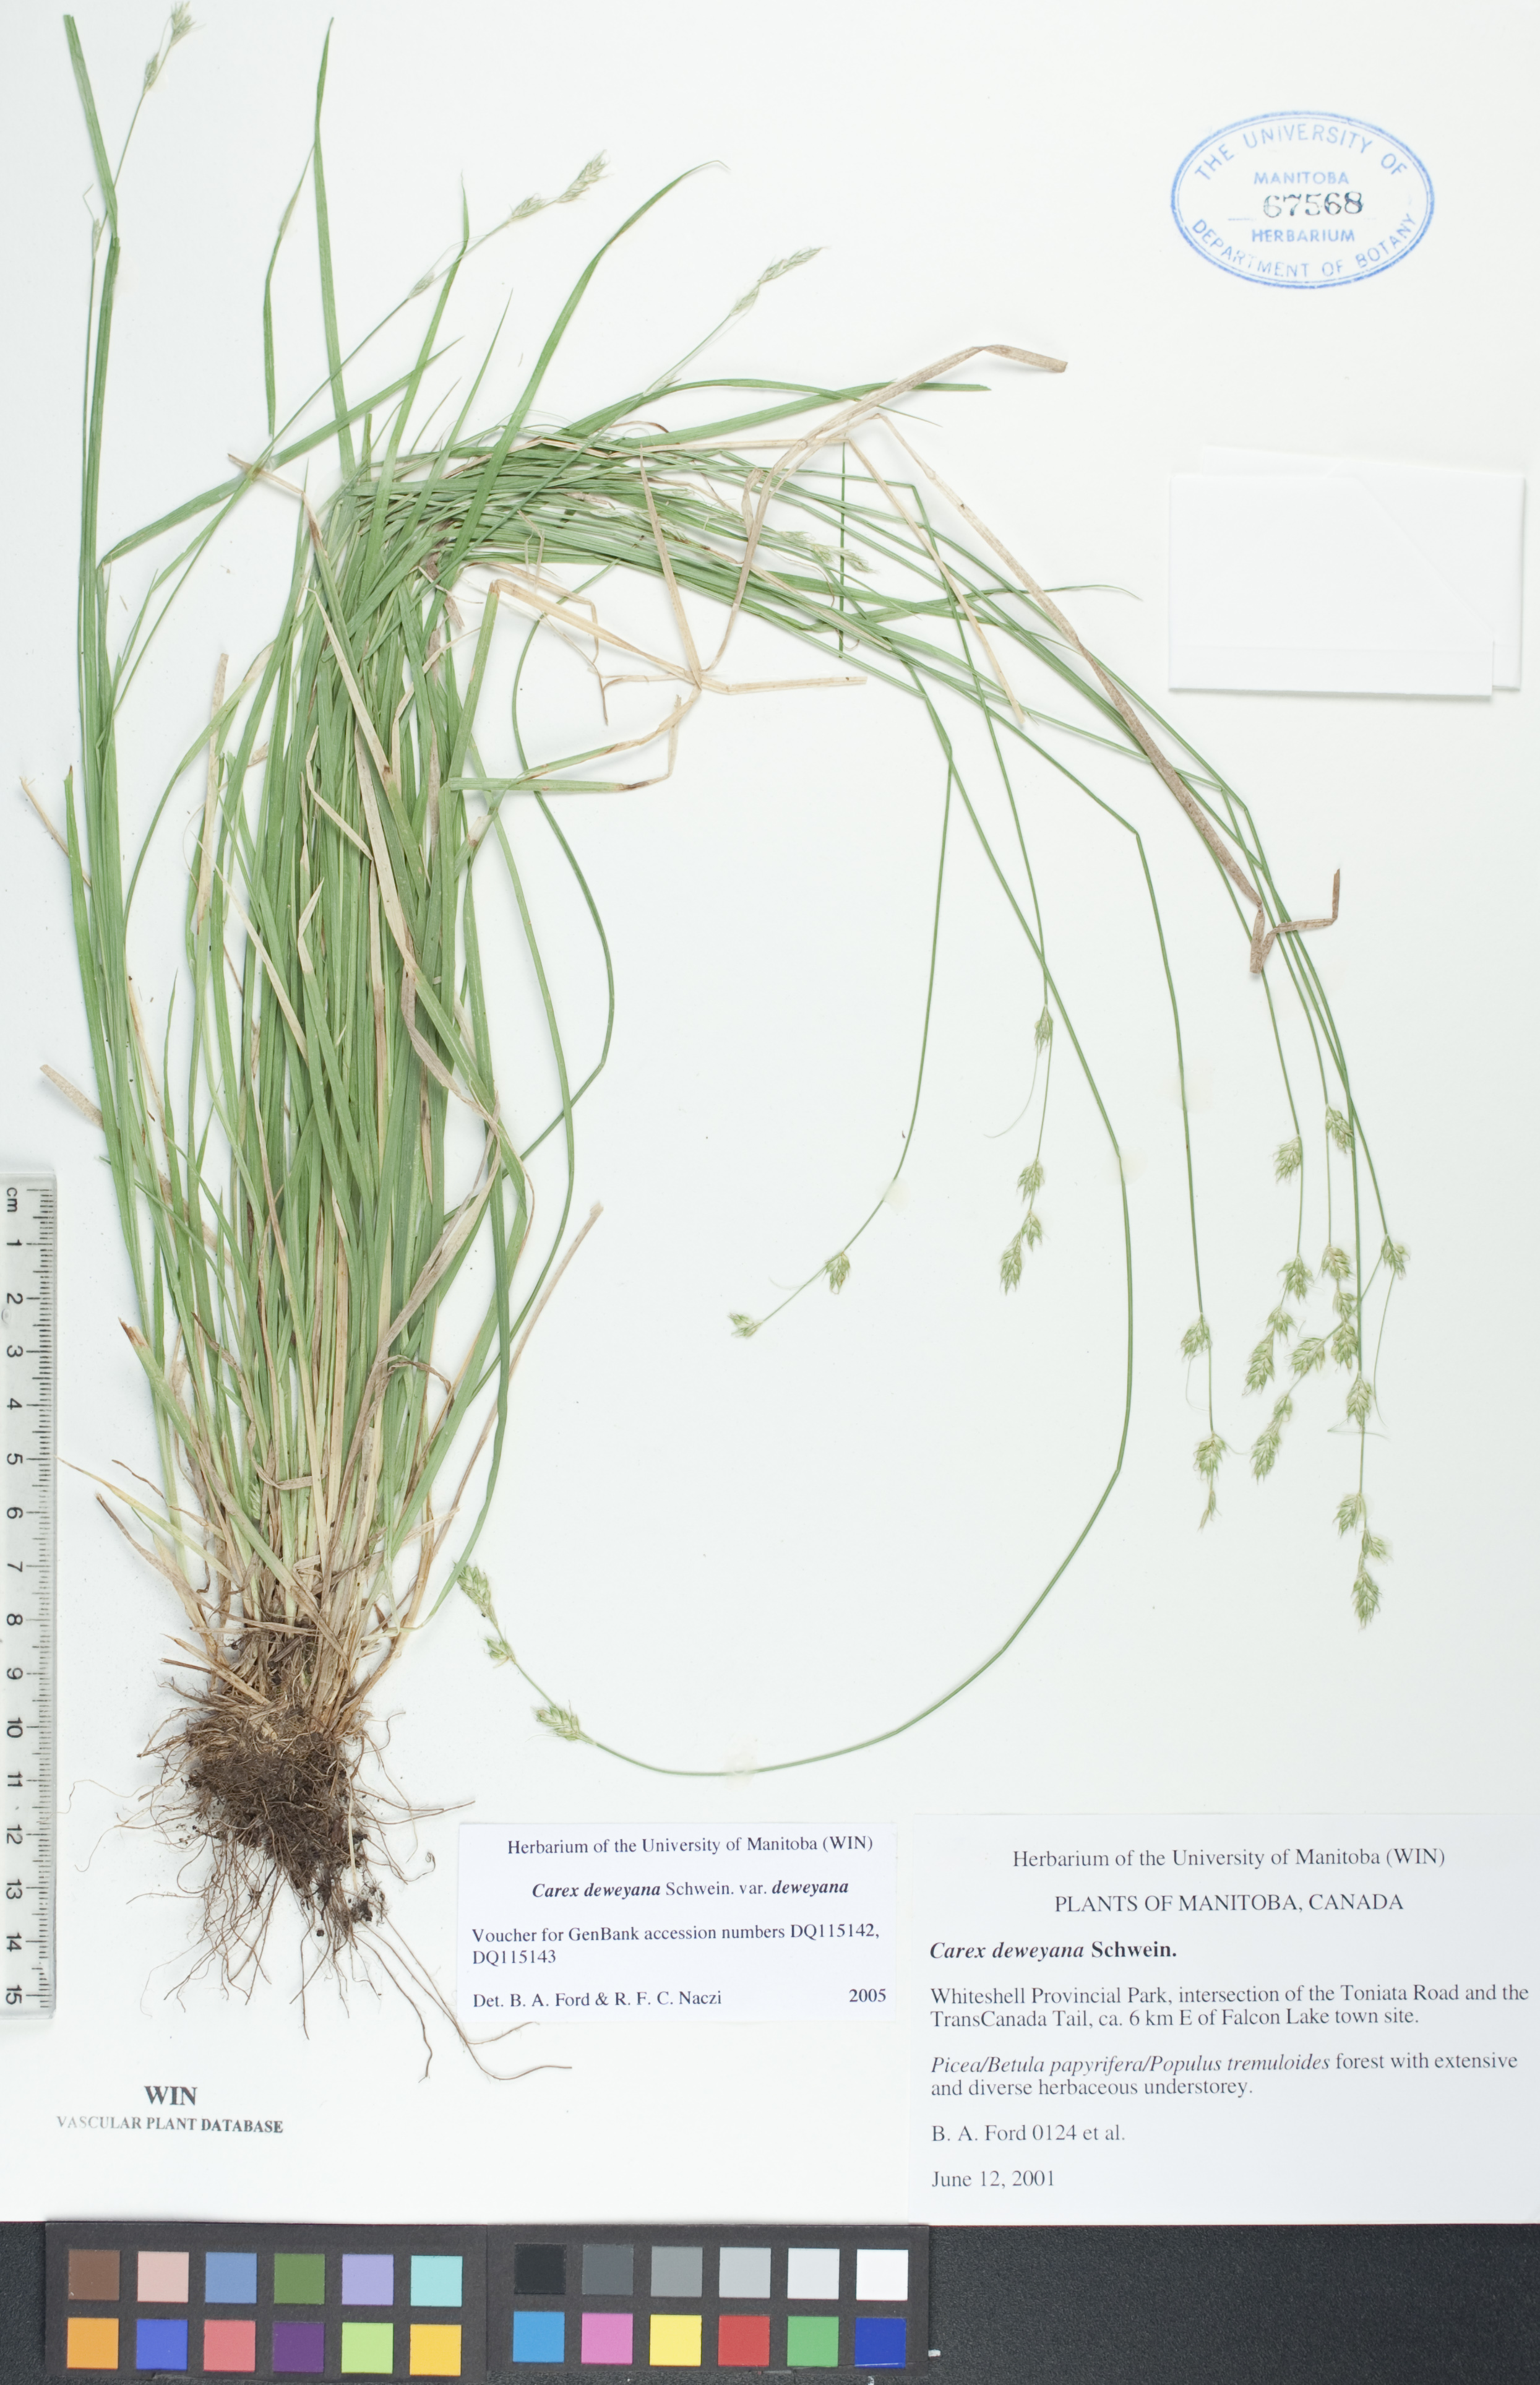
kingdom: Plantae
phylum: Tracheophyta
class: Liliopsida
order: Poales
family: Cyperaceae
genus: Carex
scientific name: Carex deweyana
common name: Dewey's sedge
